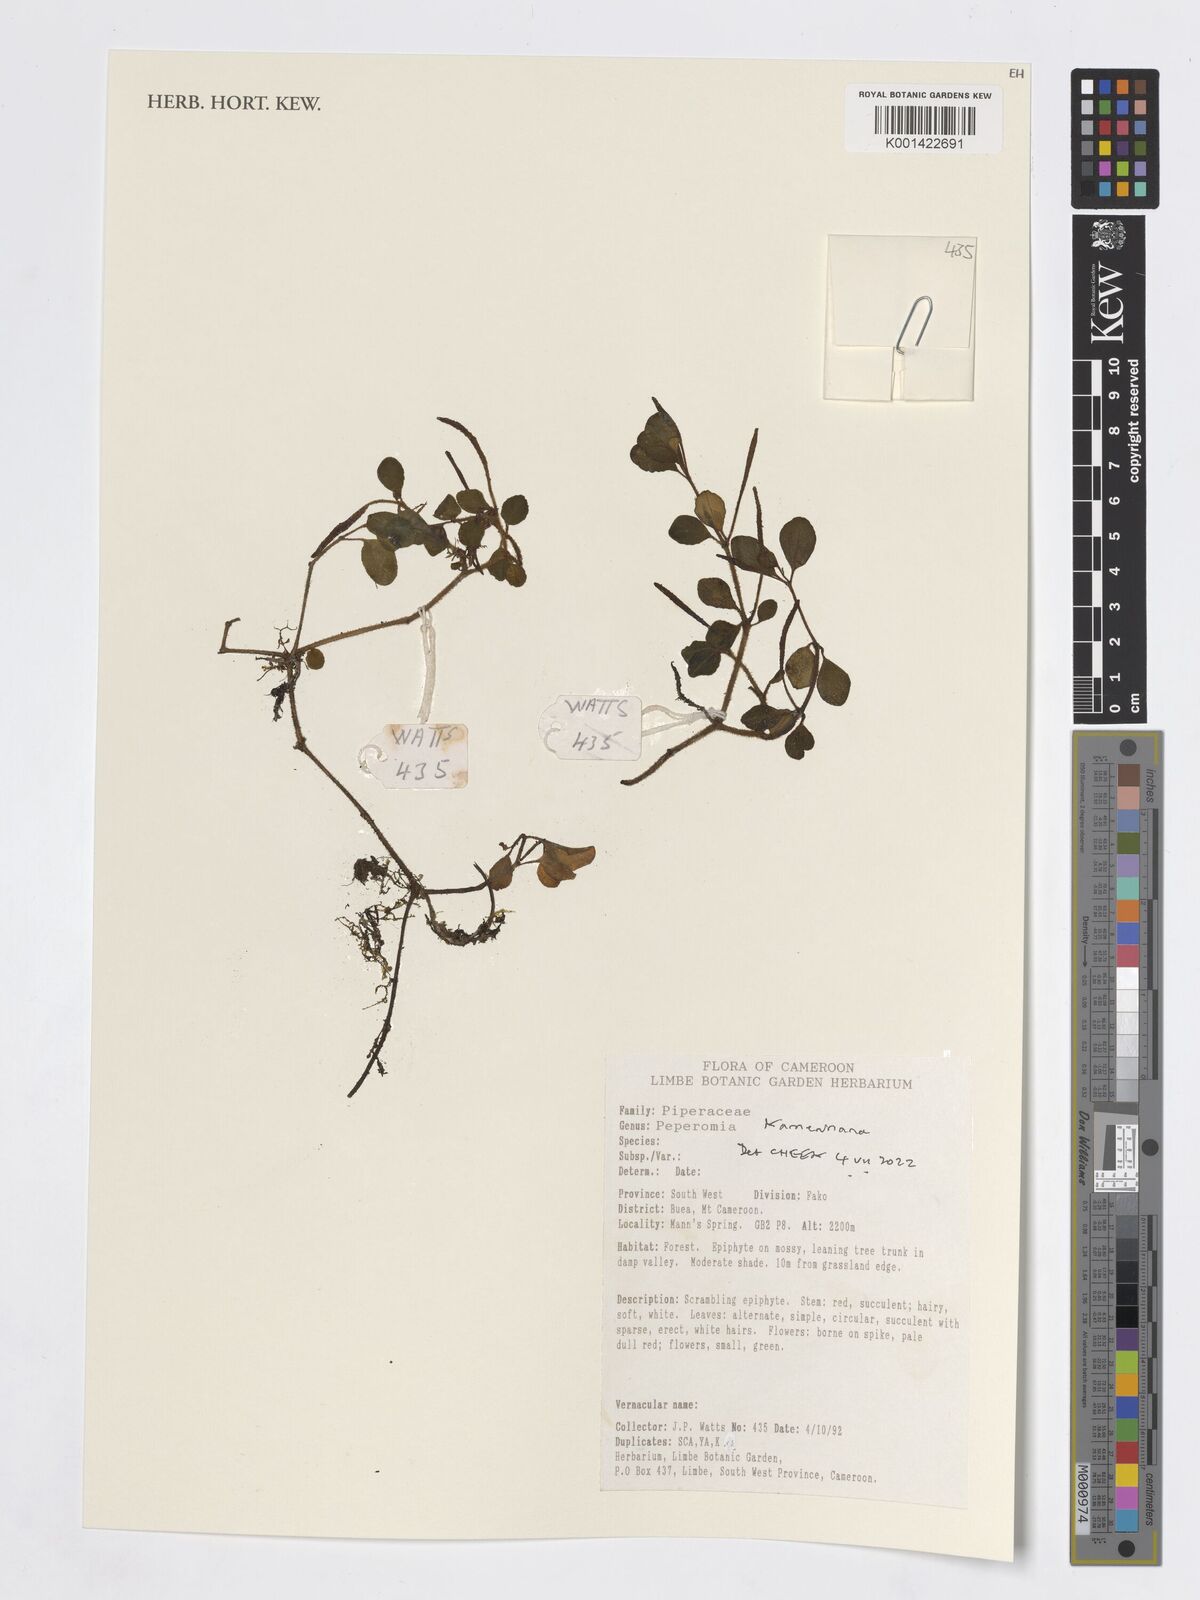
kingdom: Plantae
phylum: Tracheophyta
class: Magnoliopsida
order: Piperales
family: Piperaceae
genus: Peperomia
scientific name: Peperomia kamerunana
